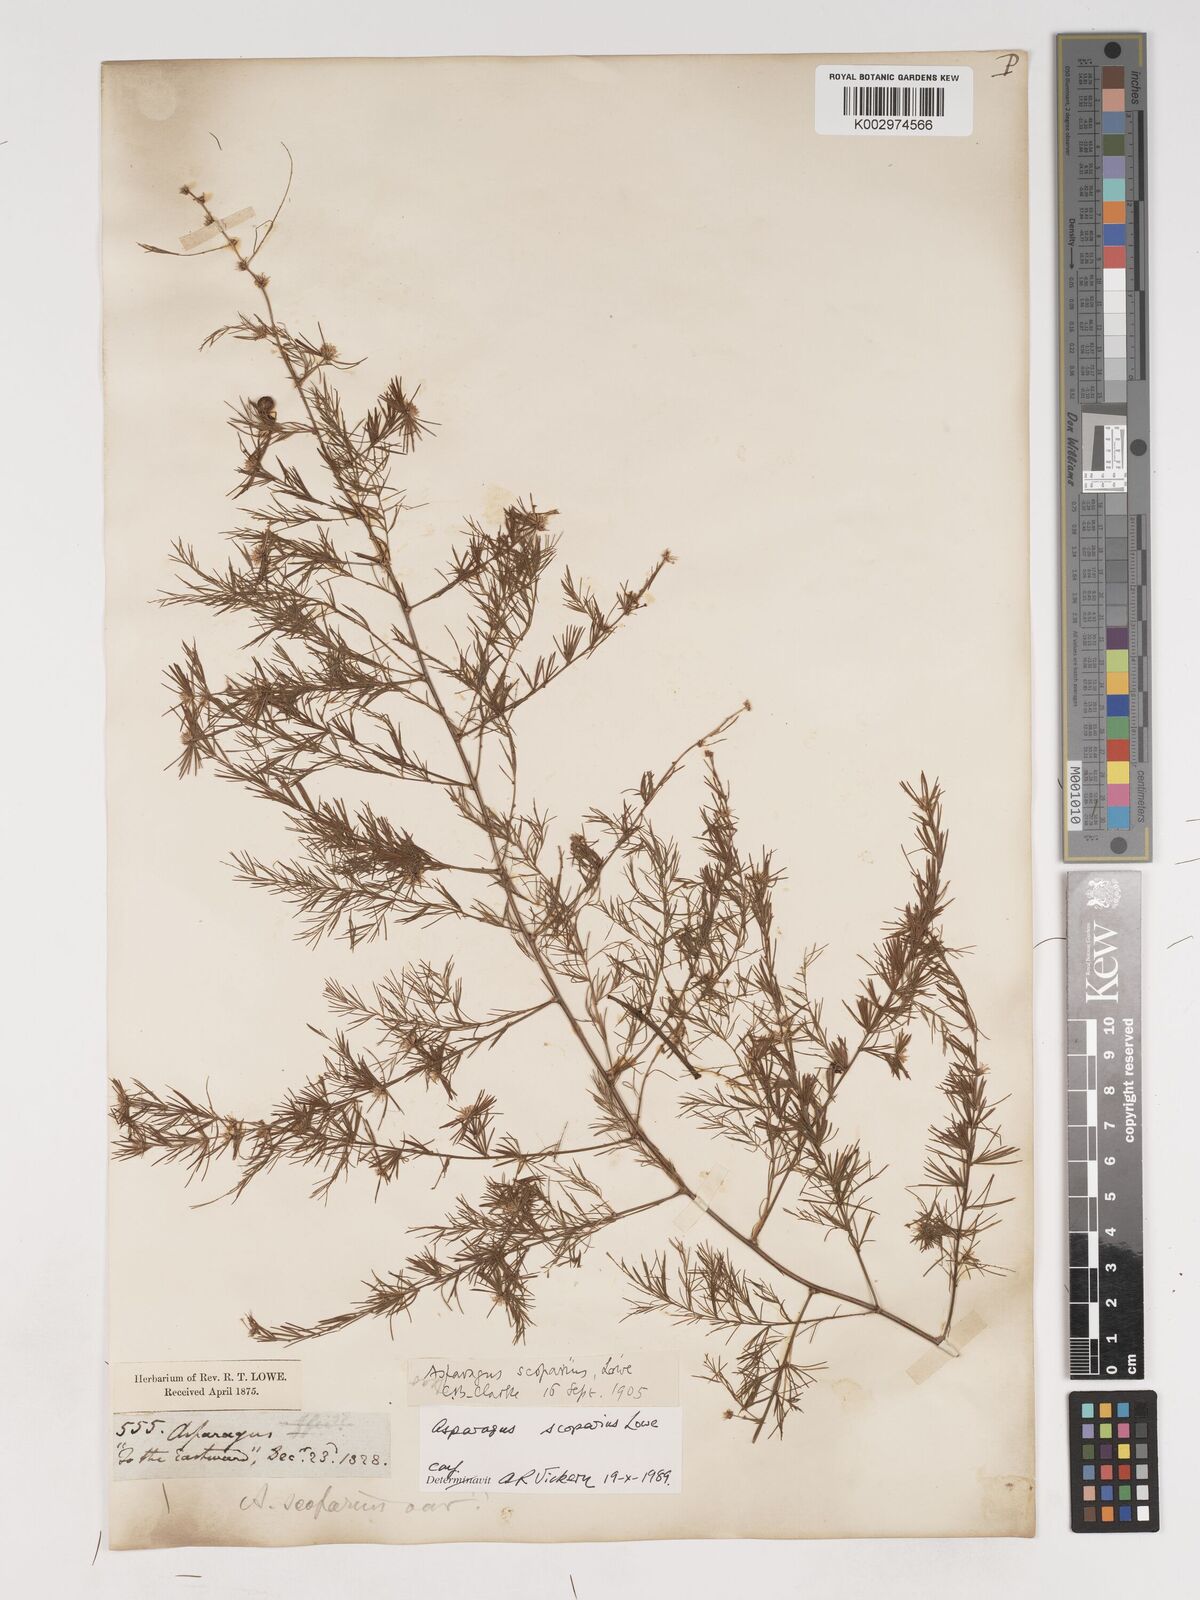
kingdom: Plantae
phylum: Tracheophyta
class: Liliopsida
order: Asparagales
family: Asparagaceae
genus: Asparagus
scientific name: Asparagus scoparius
